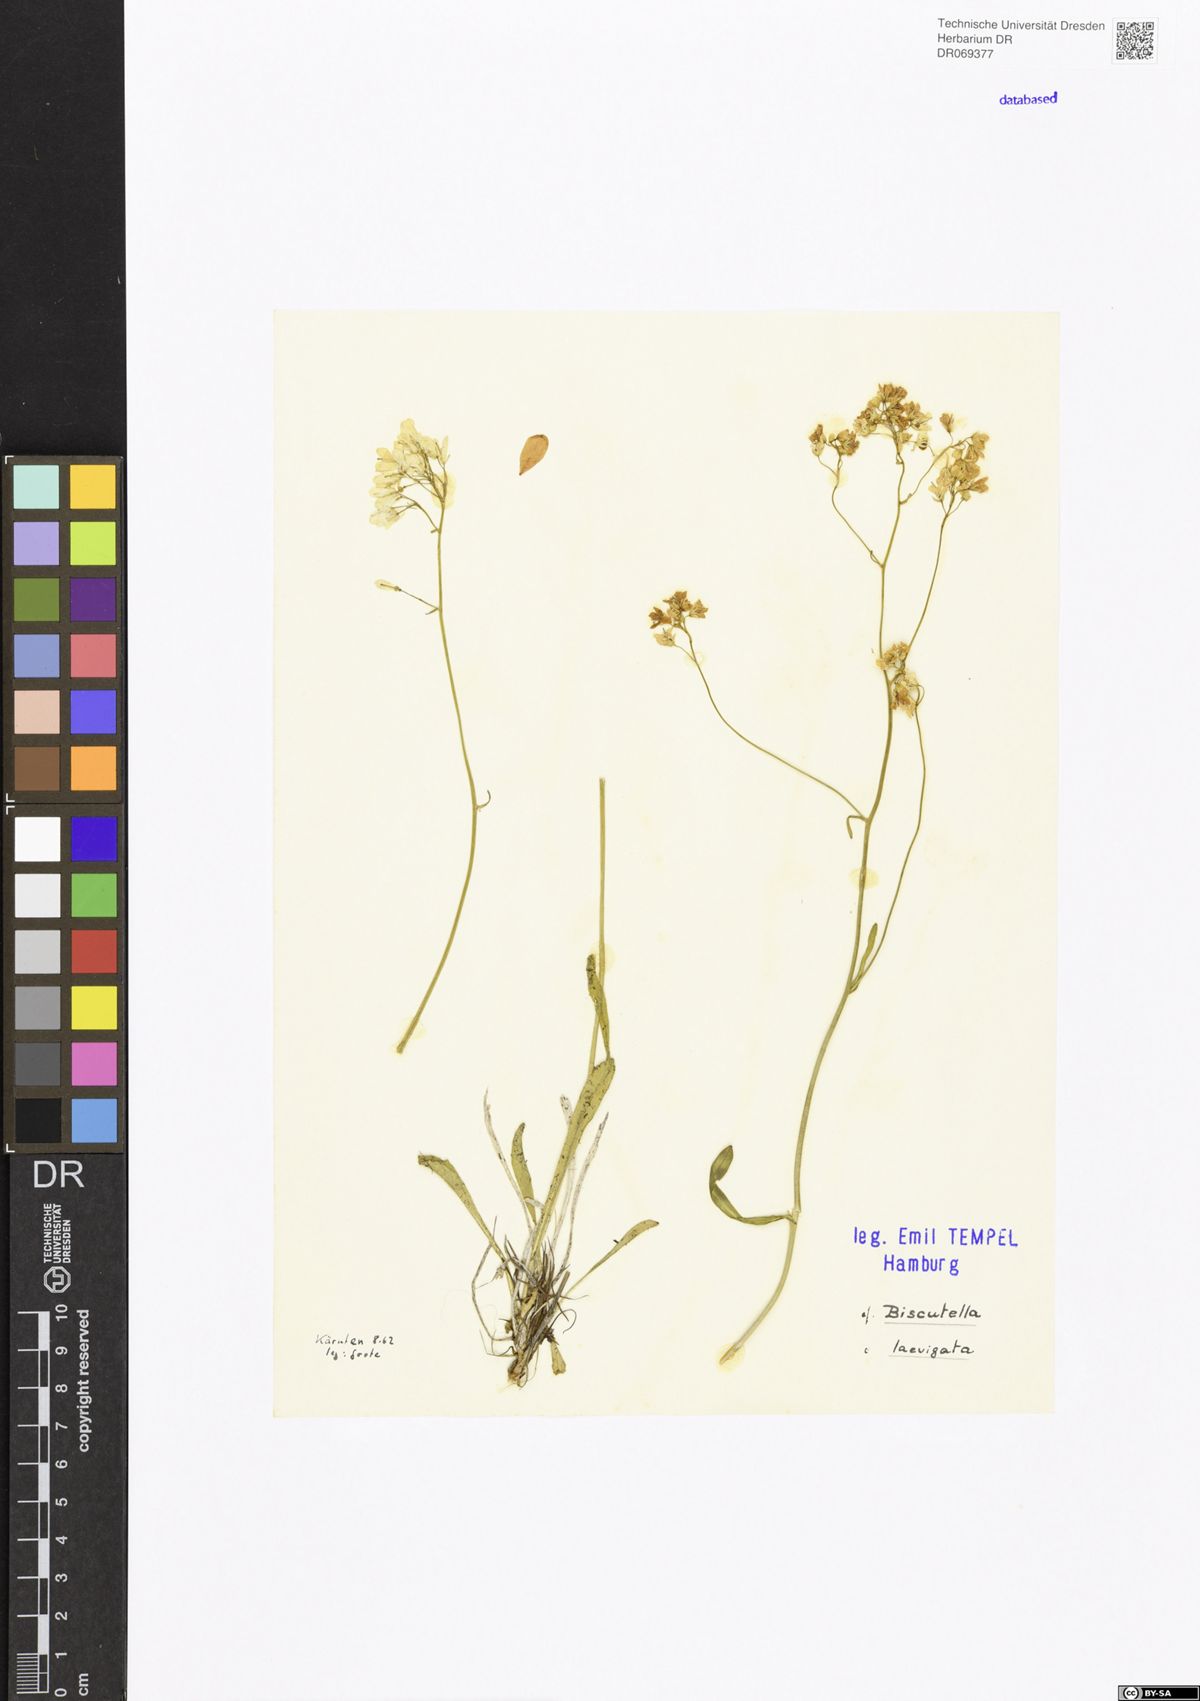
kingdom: Plantae
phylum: Tracheophyta
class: Magnoliopsida
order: Brassicales
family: Brassicaceae
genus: Biscutella
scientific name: Biscutella laevigata
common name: Buckler mustard
